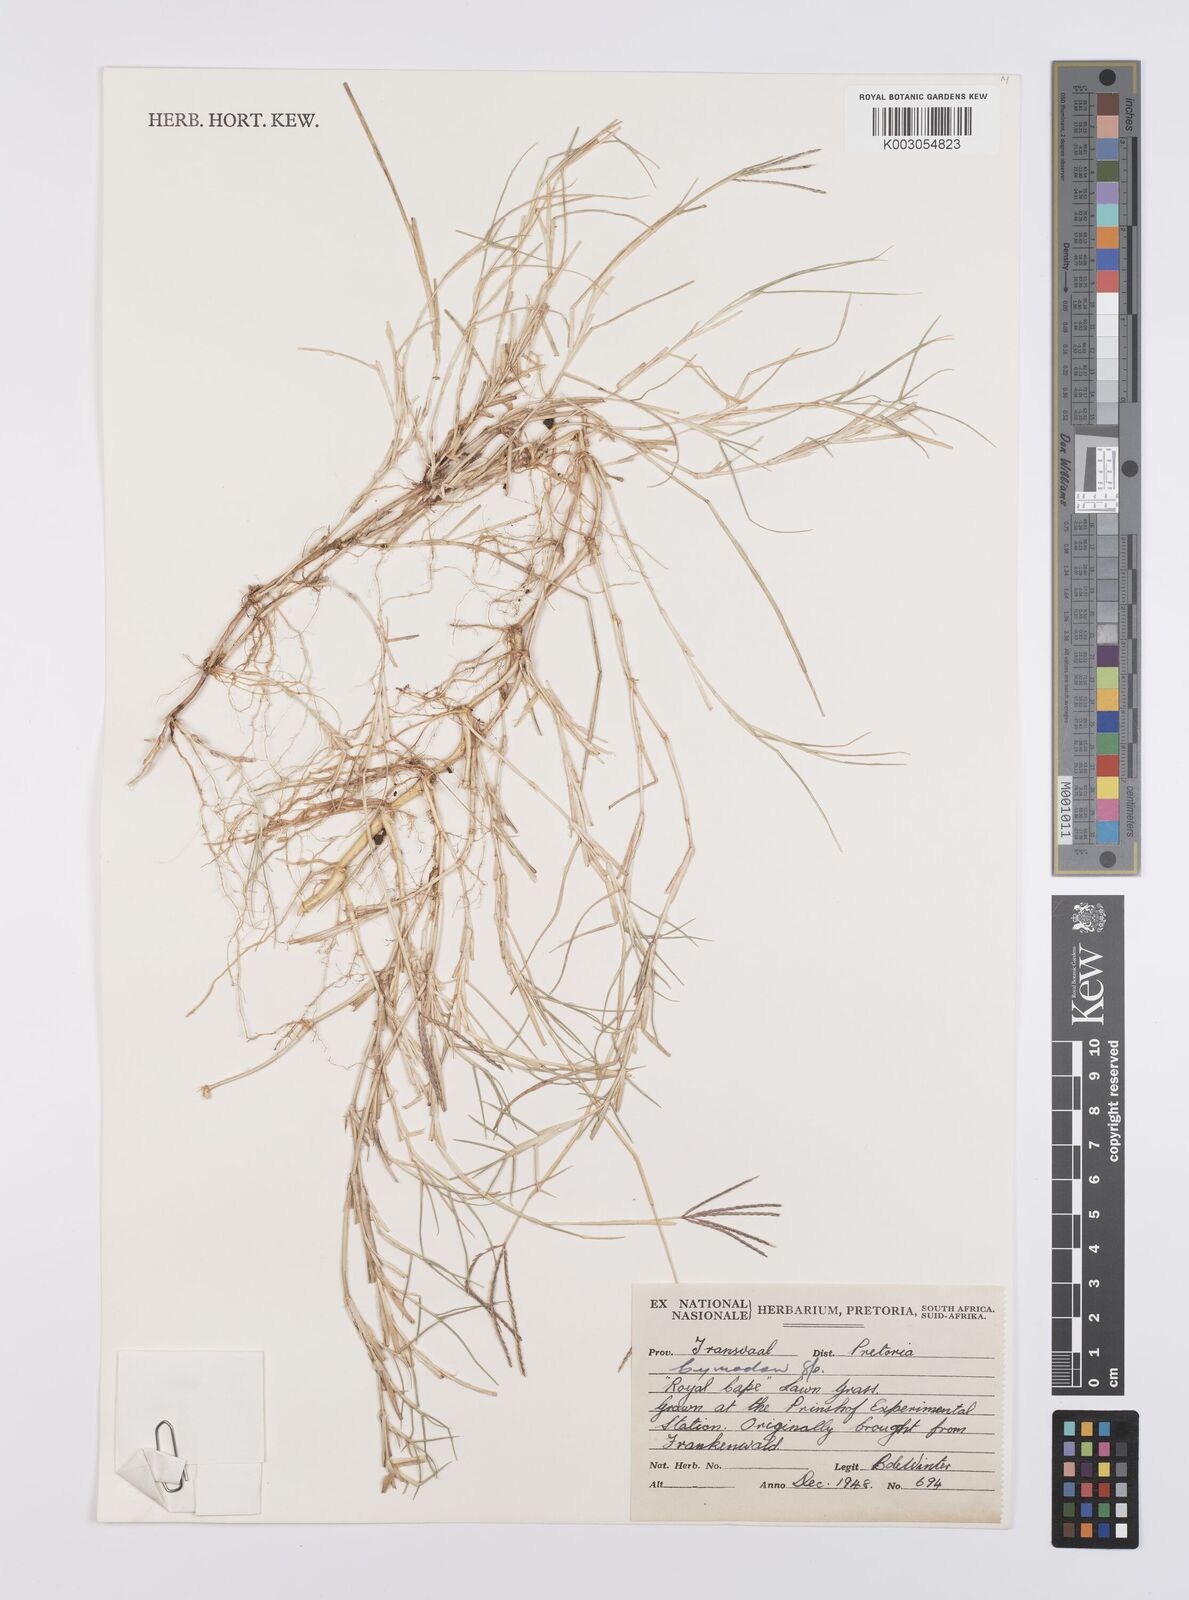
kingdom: Plantae
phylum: Tracheophyta
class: Liliopsida
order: Poales
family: Poaceae
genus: Cynodon
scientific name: Cynodon dactylon
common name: Bermuda grass
